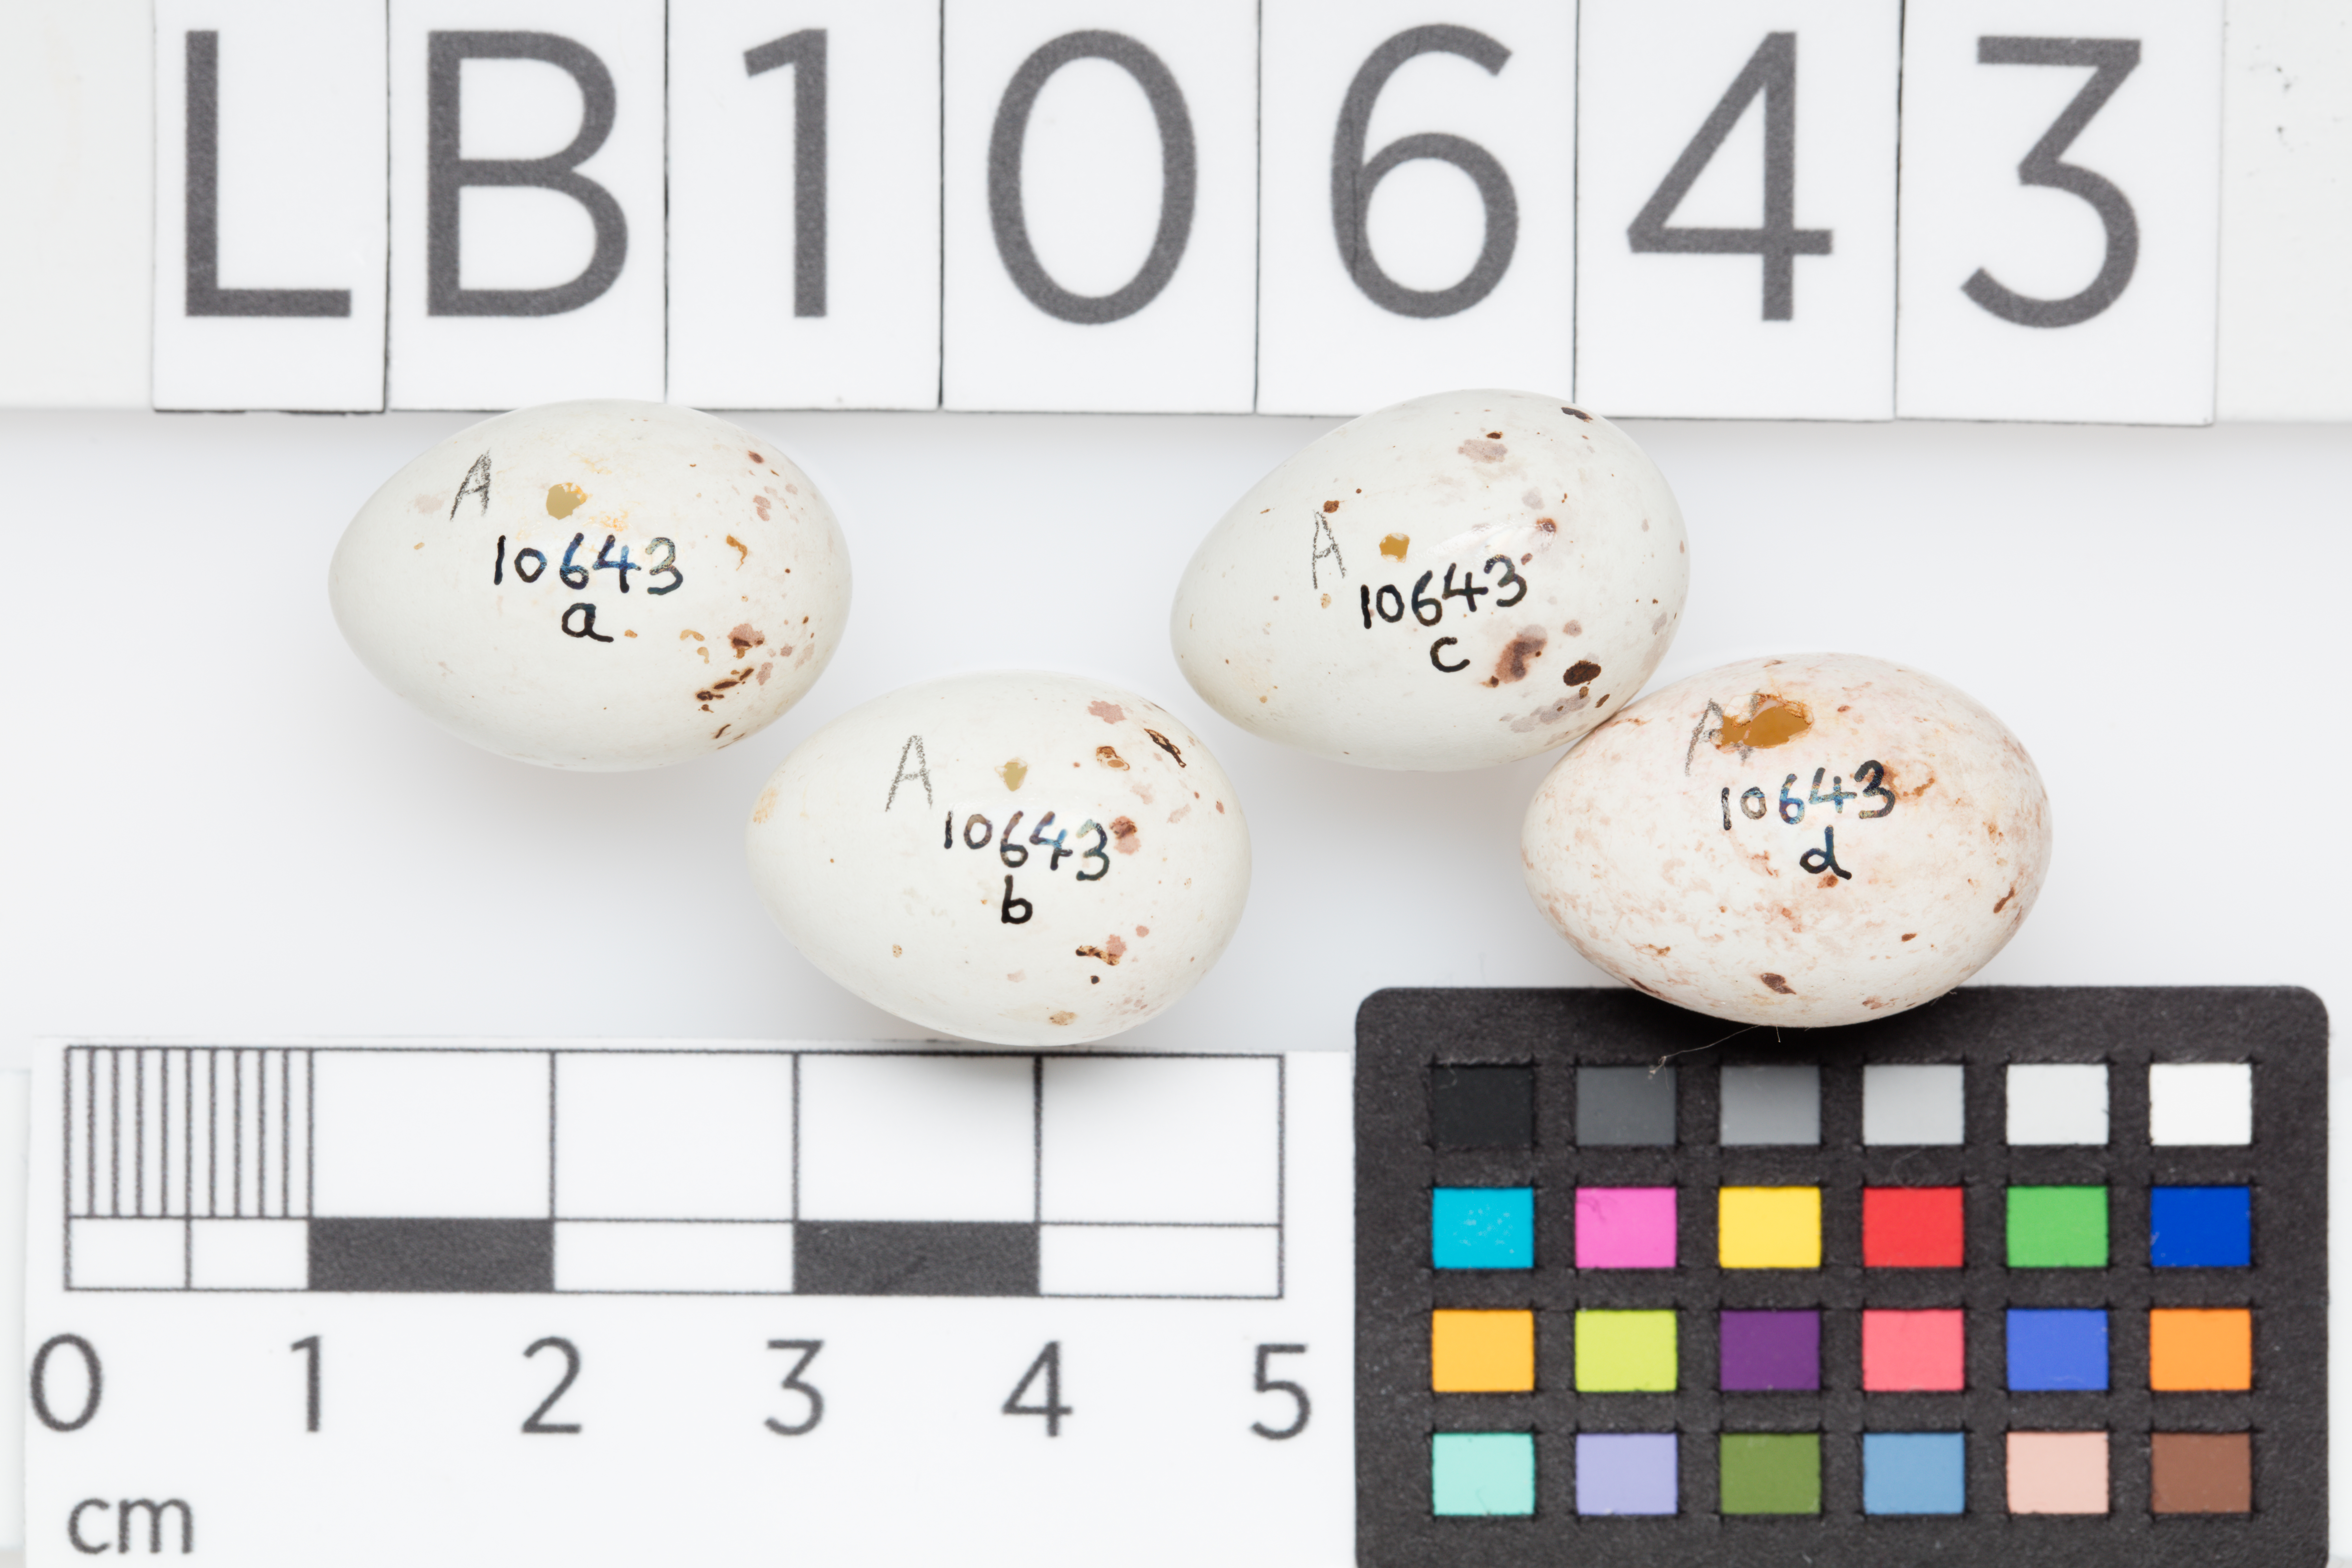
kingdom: Plantae
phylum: Tracheophyta
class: Liliopsida
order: Poales
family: Poaceae
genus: Chloris
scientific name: Chloris chloris
